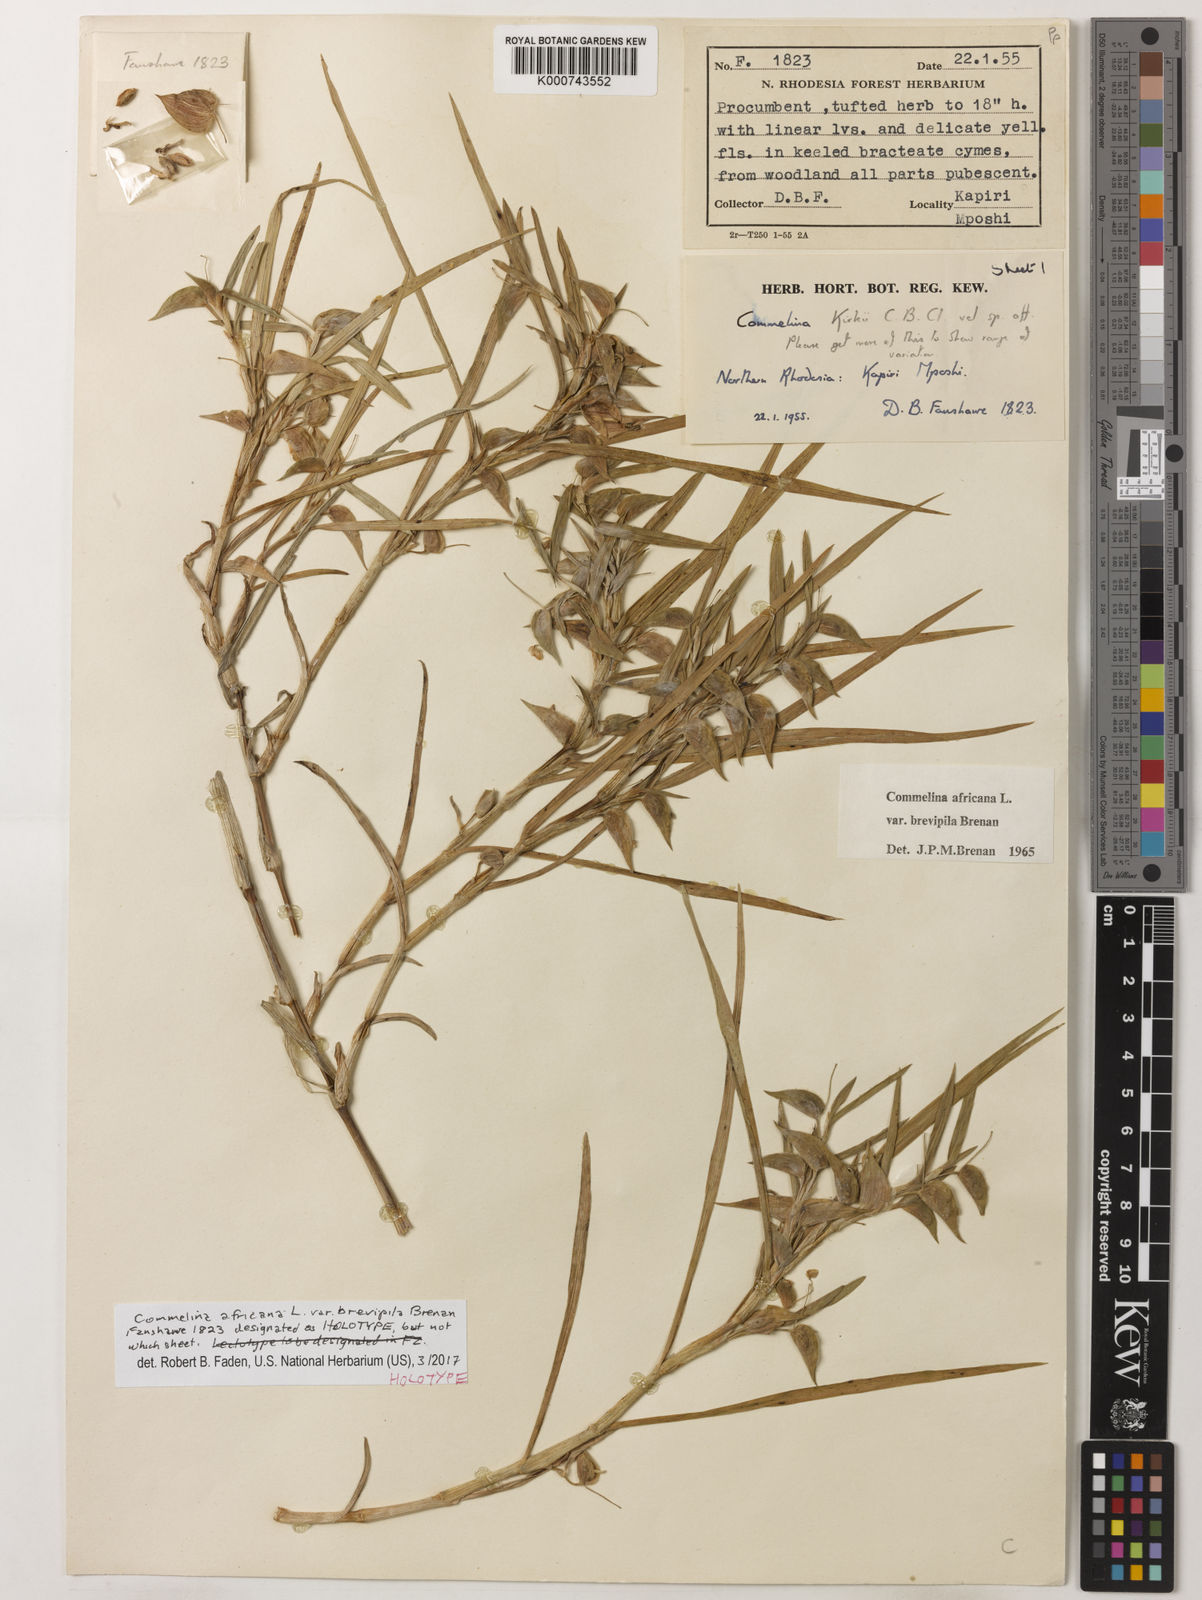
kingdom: Plantae
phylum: Tracheophyta
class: Liliopsida
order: Commelinales
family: Commelinaceae
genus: Commelina
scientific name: Commelina africana
